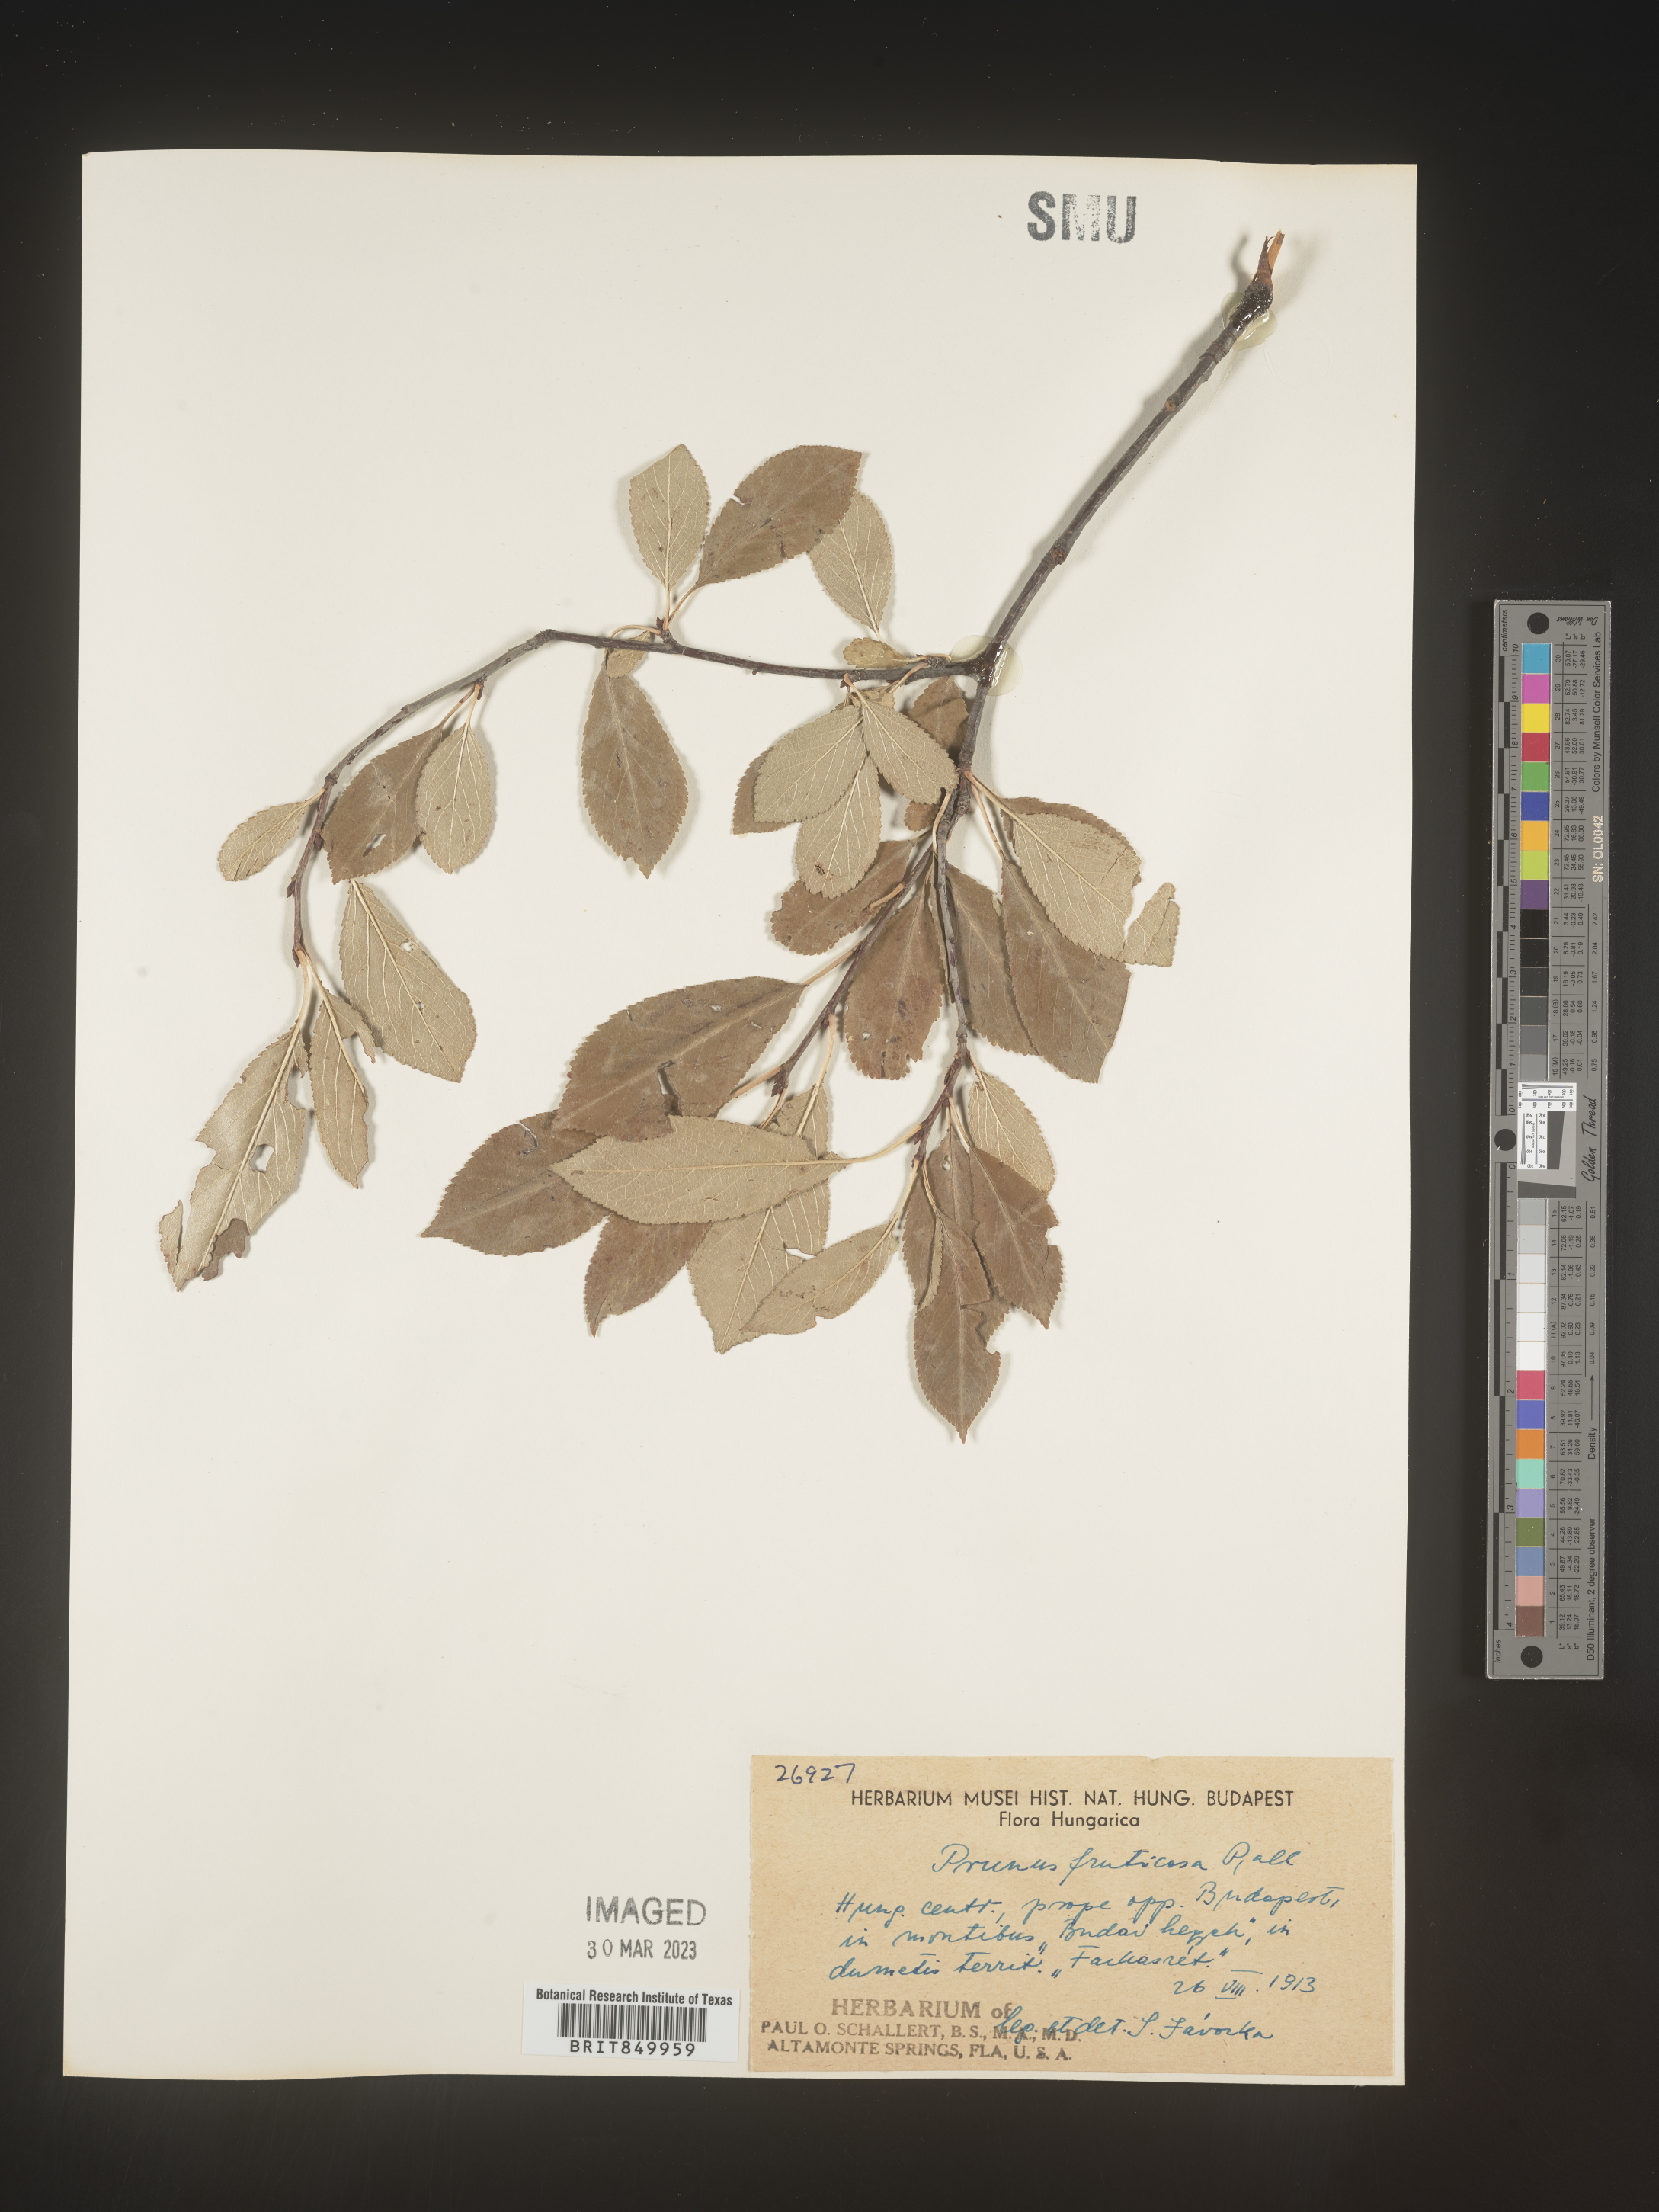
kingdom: Plantae
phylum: Tracheophyta
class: Magnoliopsida
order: Rosales
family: Rosaceae
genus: Prunus
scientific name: Prunus
